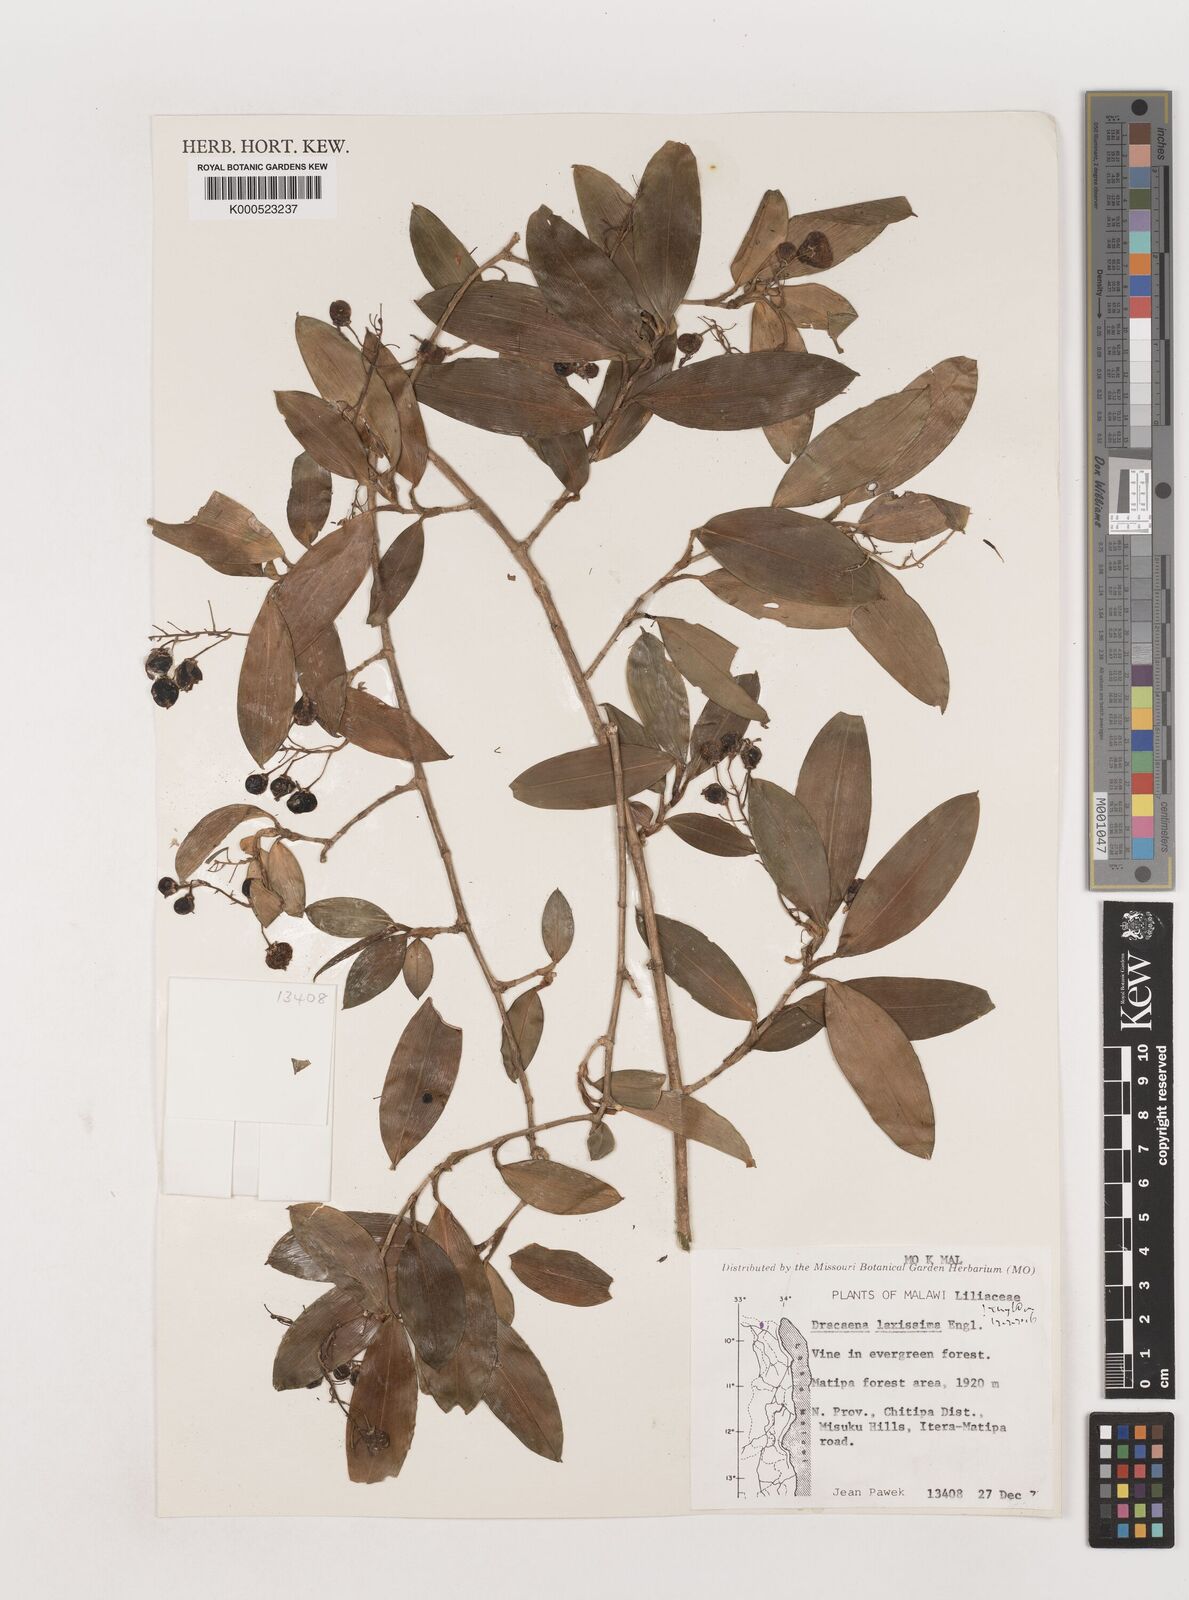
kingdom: Plantae
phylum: Tracheophyta
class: Liliopsida
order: Asparagales
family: Asparagaceae
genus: Dracaena
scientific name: Dracaena laxissima
